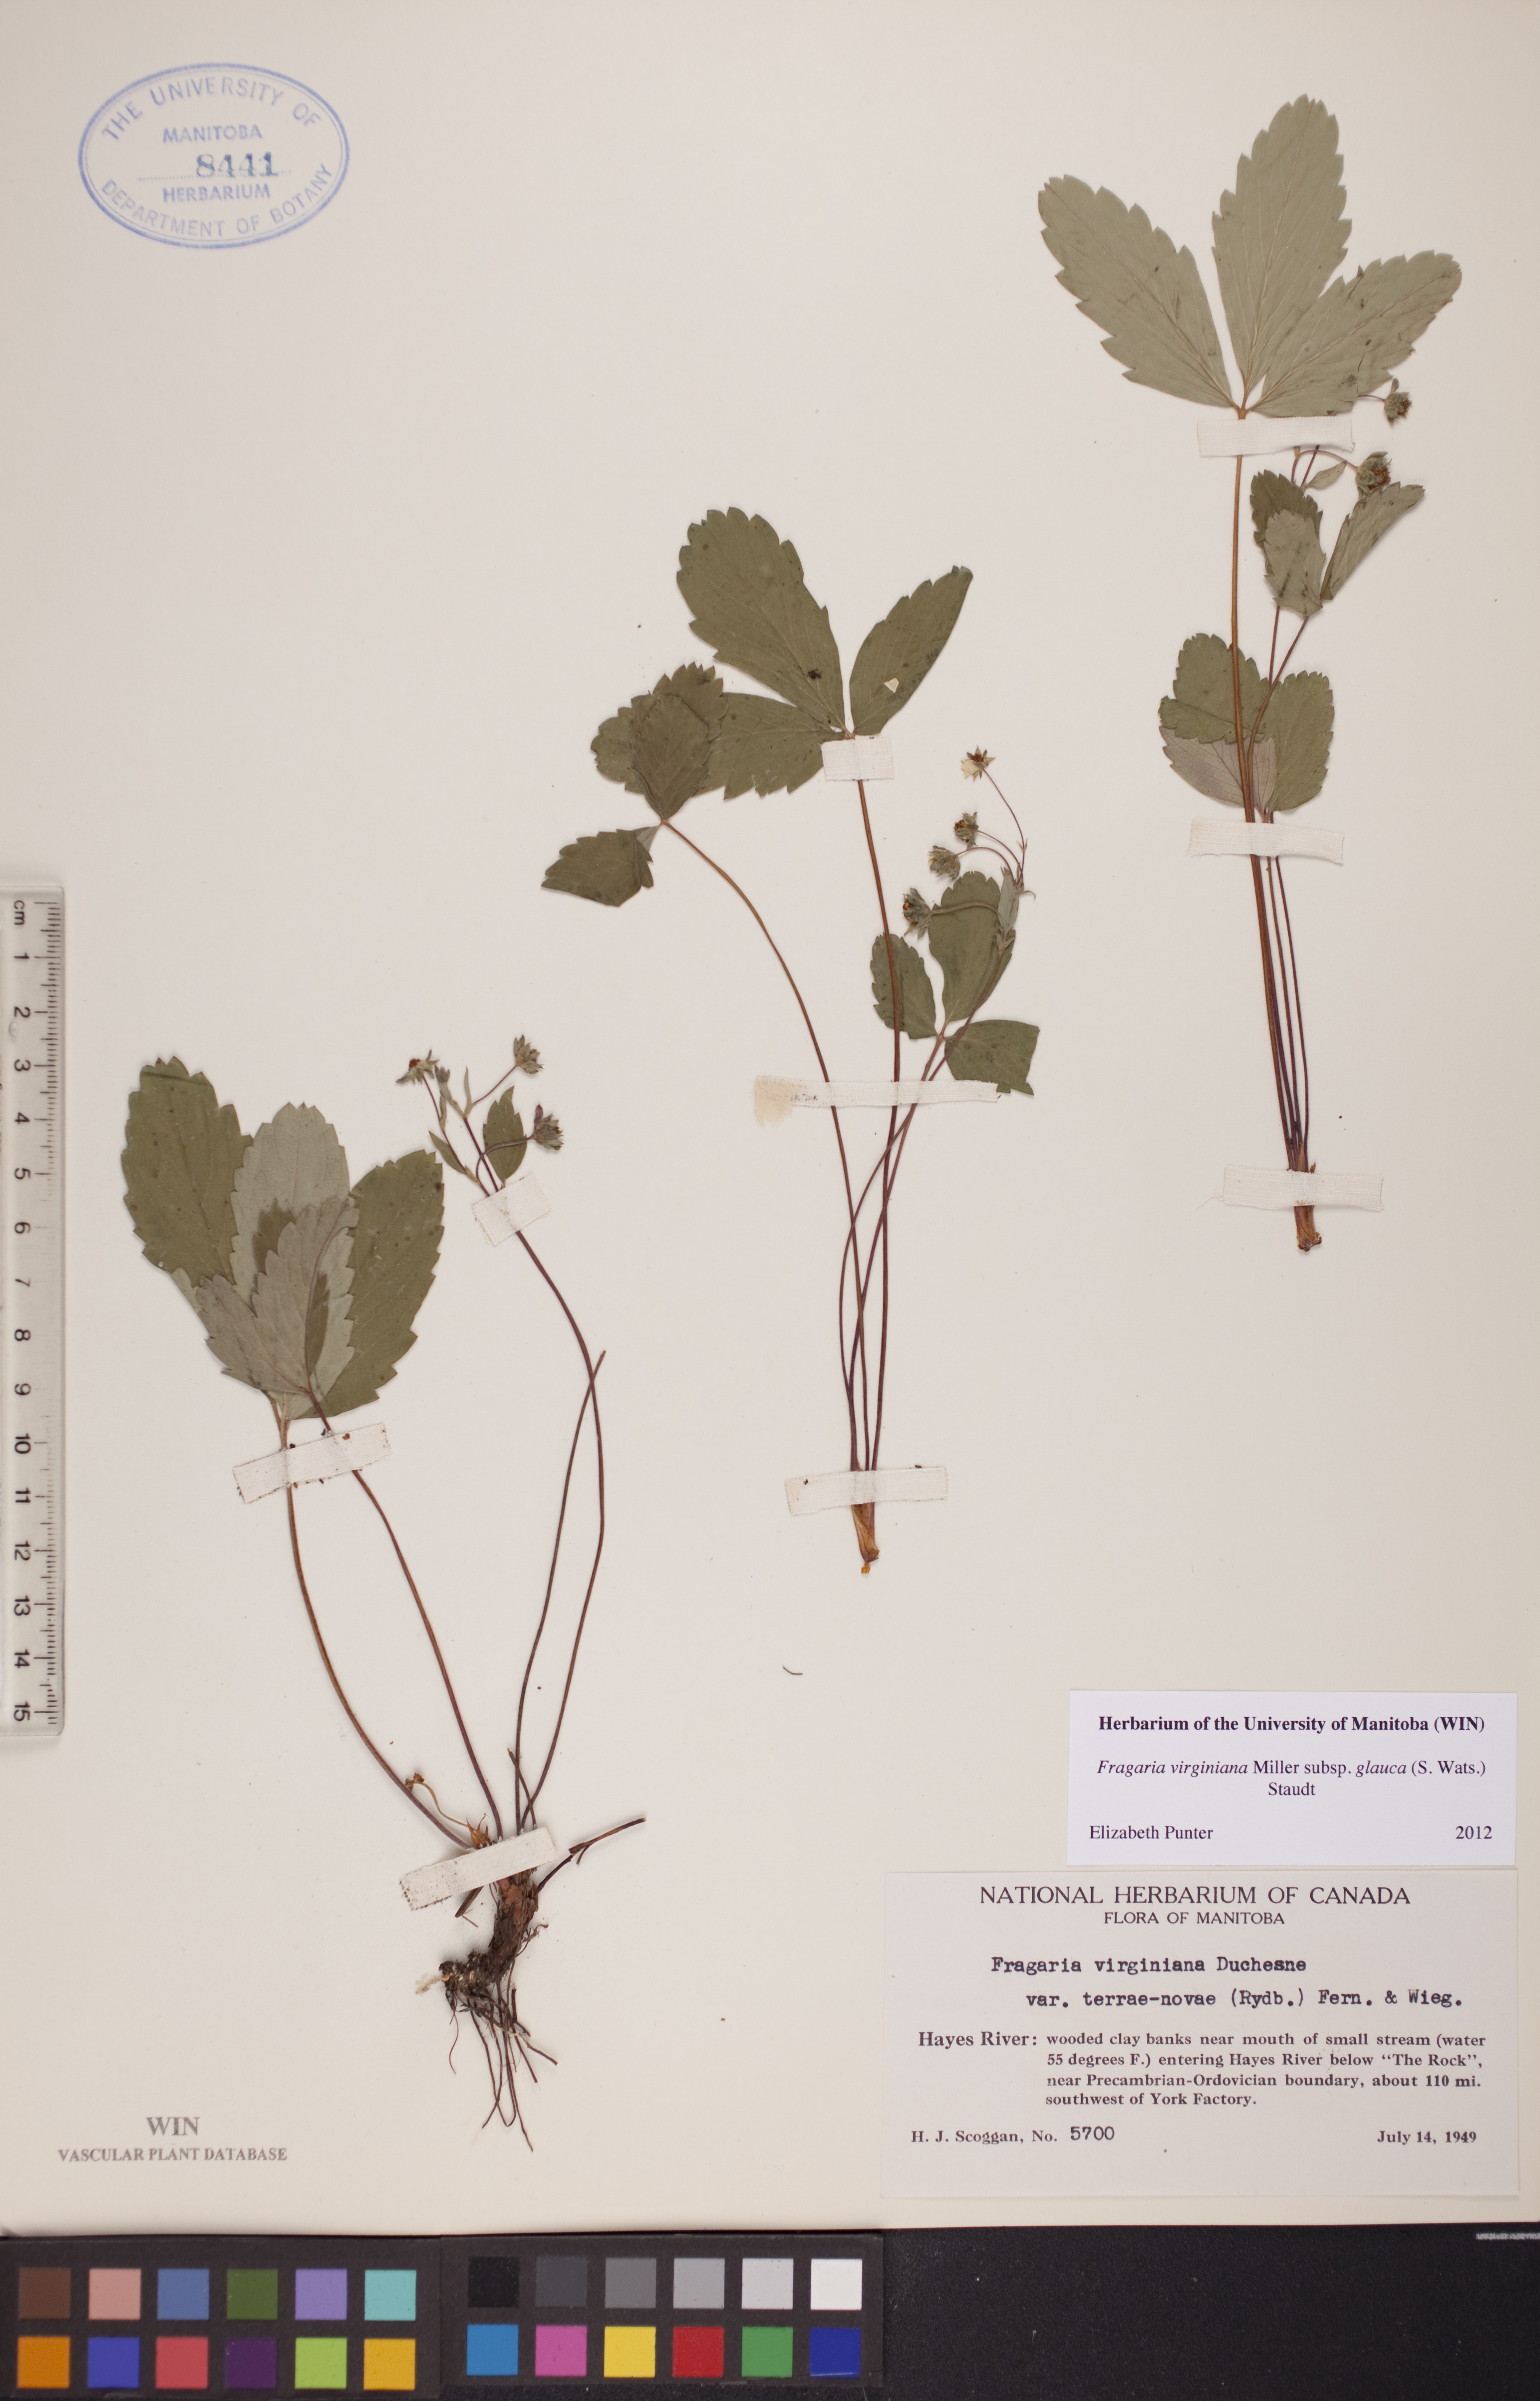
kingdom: Plantae
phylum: Tracheophyta
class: Magnoliopsida
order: Rosales
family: Rosaceae
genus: Fragaria
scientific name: Fragaria virginiana
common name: Thickleaved wild strawberry
